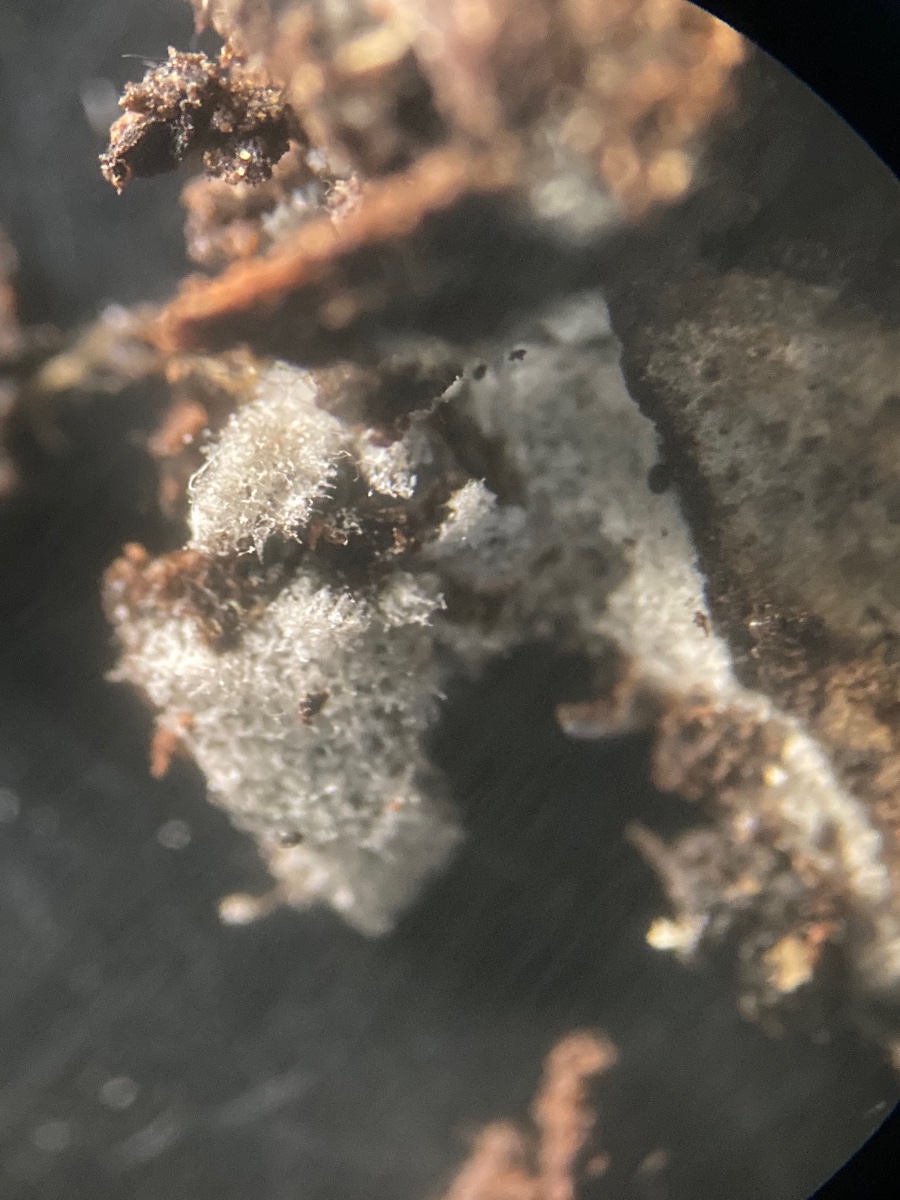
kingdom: Fungi
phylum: Ascomycota
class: Leotiomycetes
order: Helotiales
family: Helotiaceae
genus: Helicodendron
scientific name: Helicodendron
